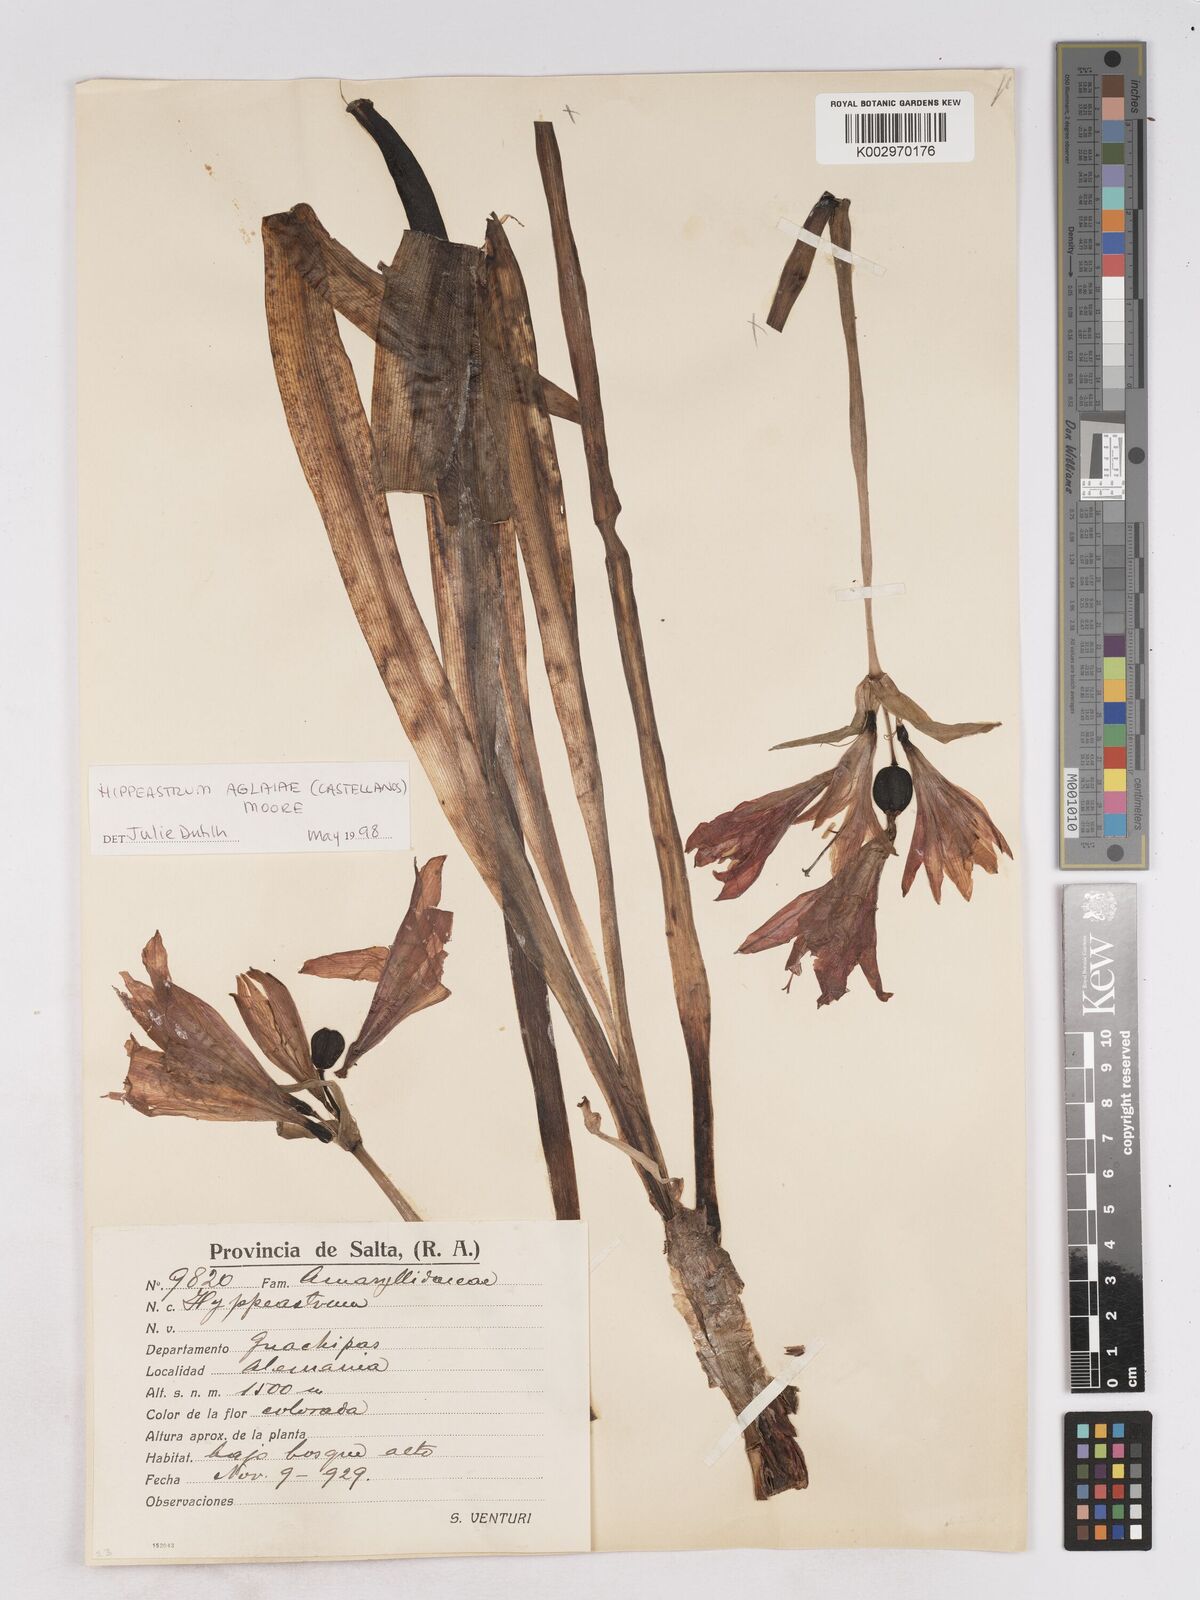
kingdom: Plantae
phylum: Tracheophyta
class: Liliopsida
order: Asparagales
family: Amaryllidaceae
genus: Hippeastrum
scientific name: Hippeastrum
